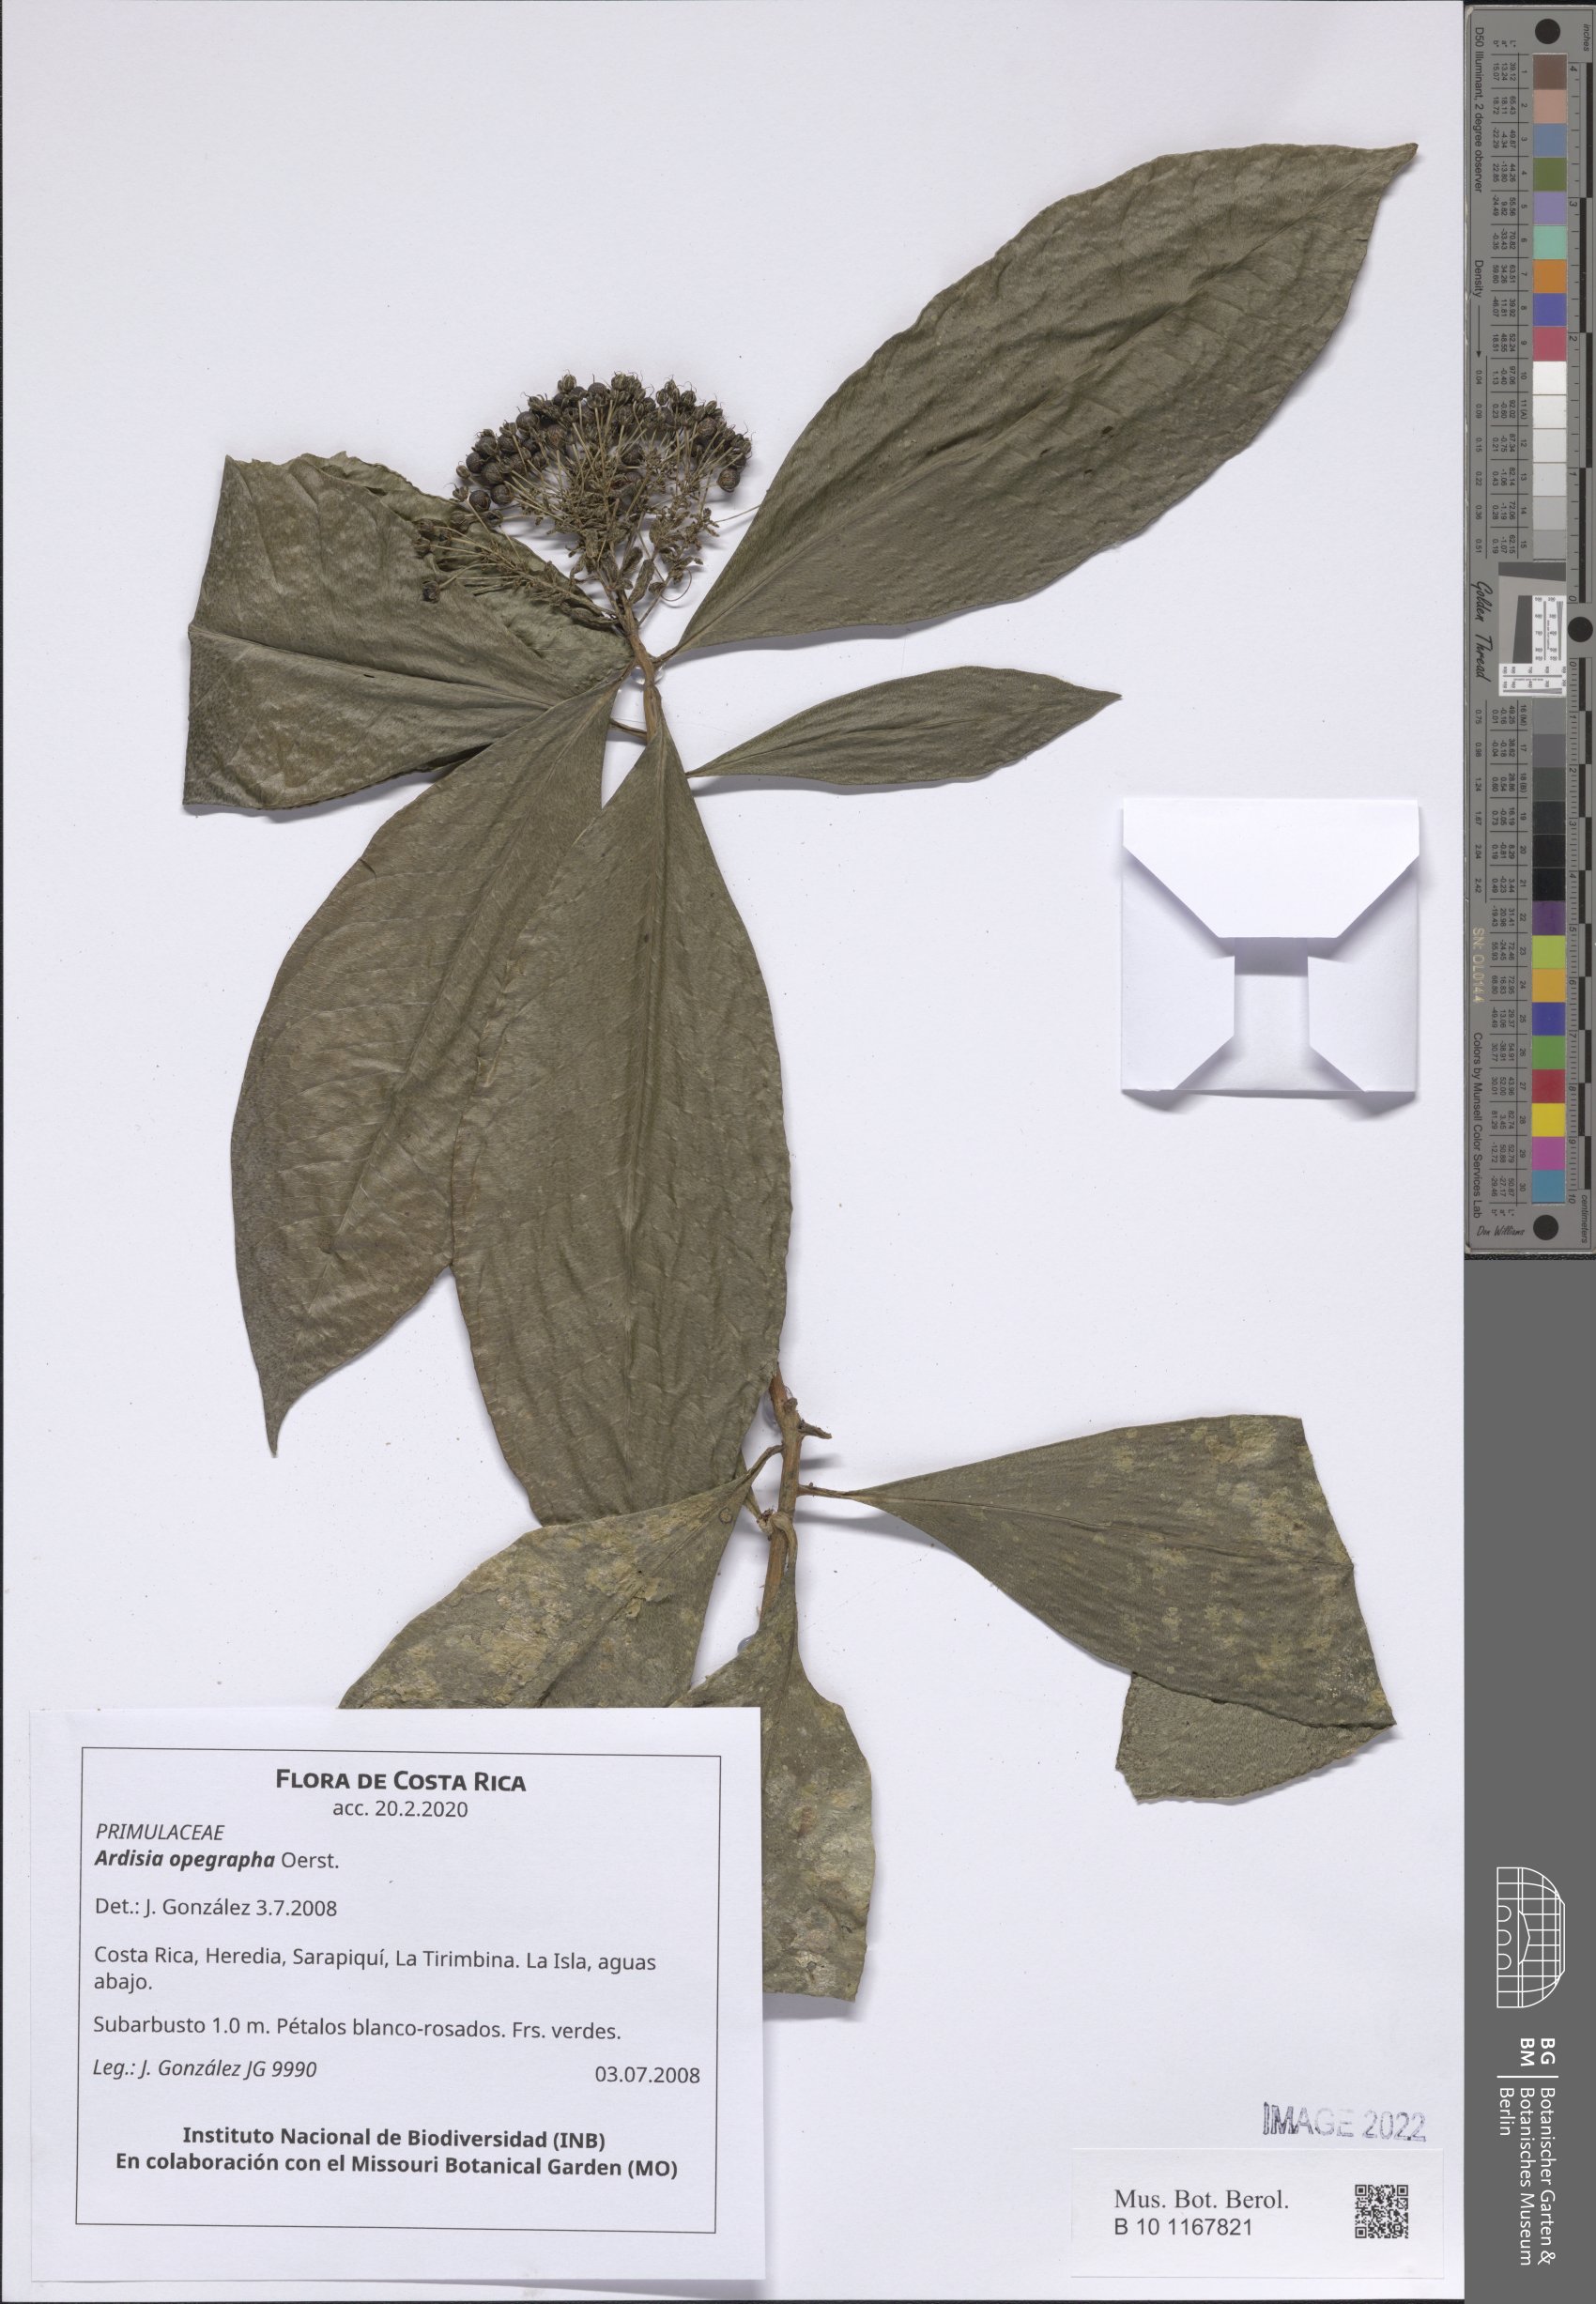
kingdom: Plantae
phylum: Tracheophyta
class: Magnoliopsida
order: Ericales
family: Primulaceae
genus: Ardisia
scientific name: Ardisia opegrapha
